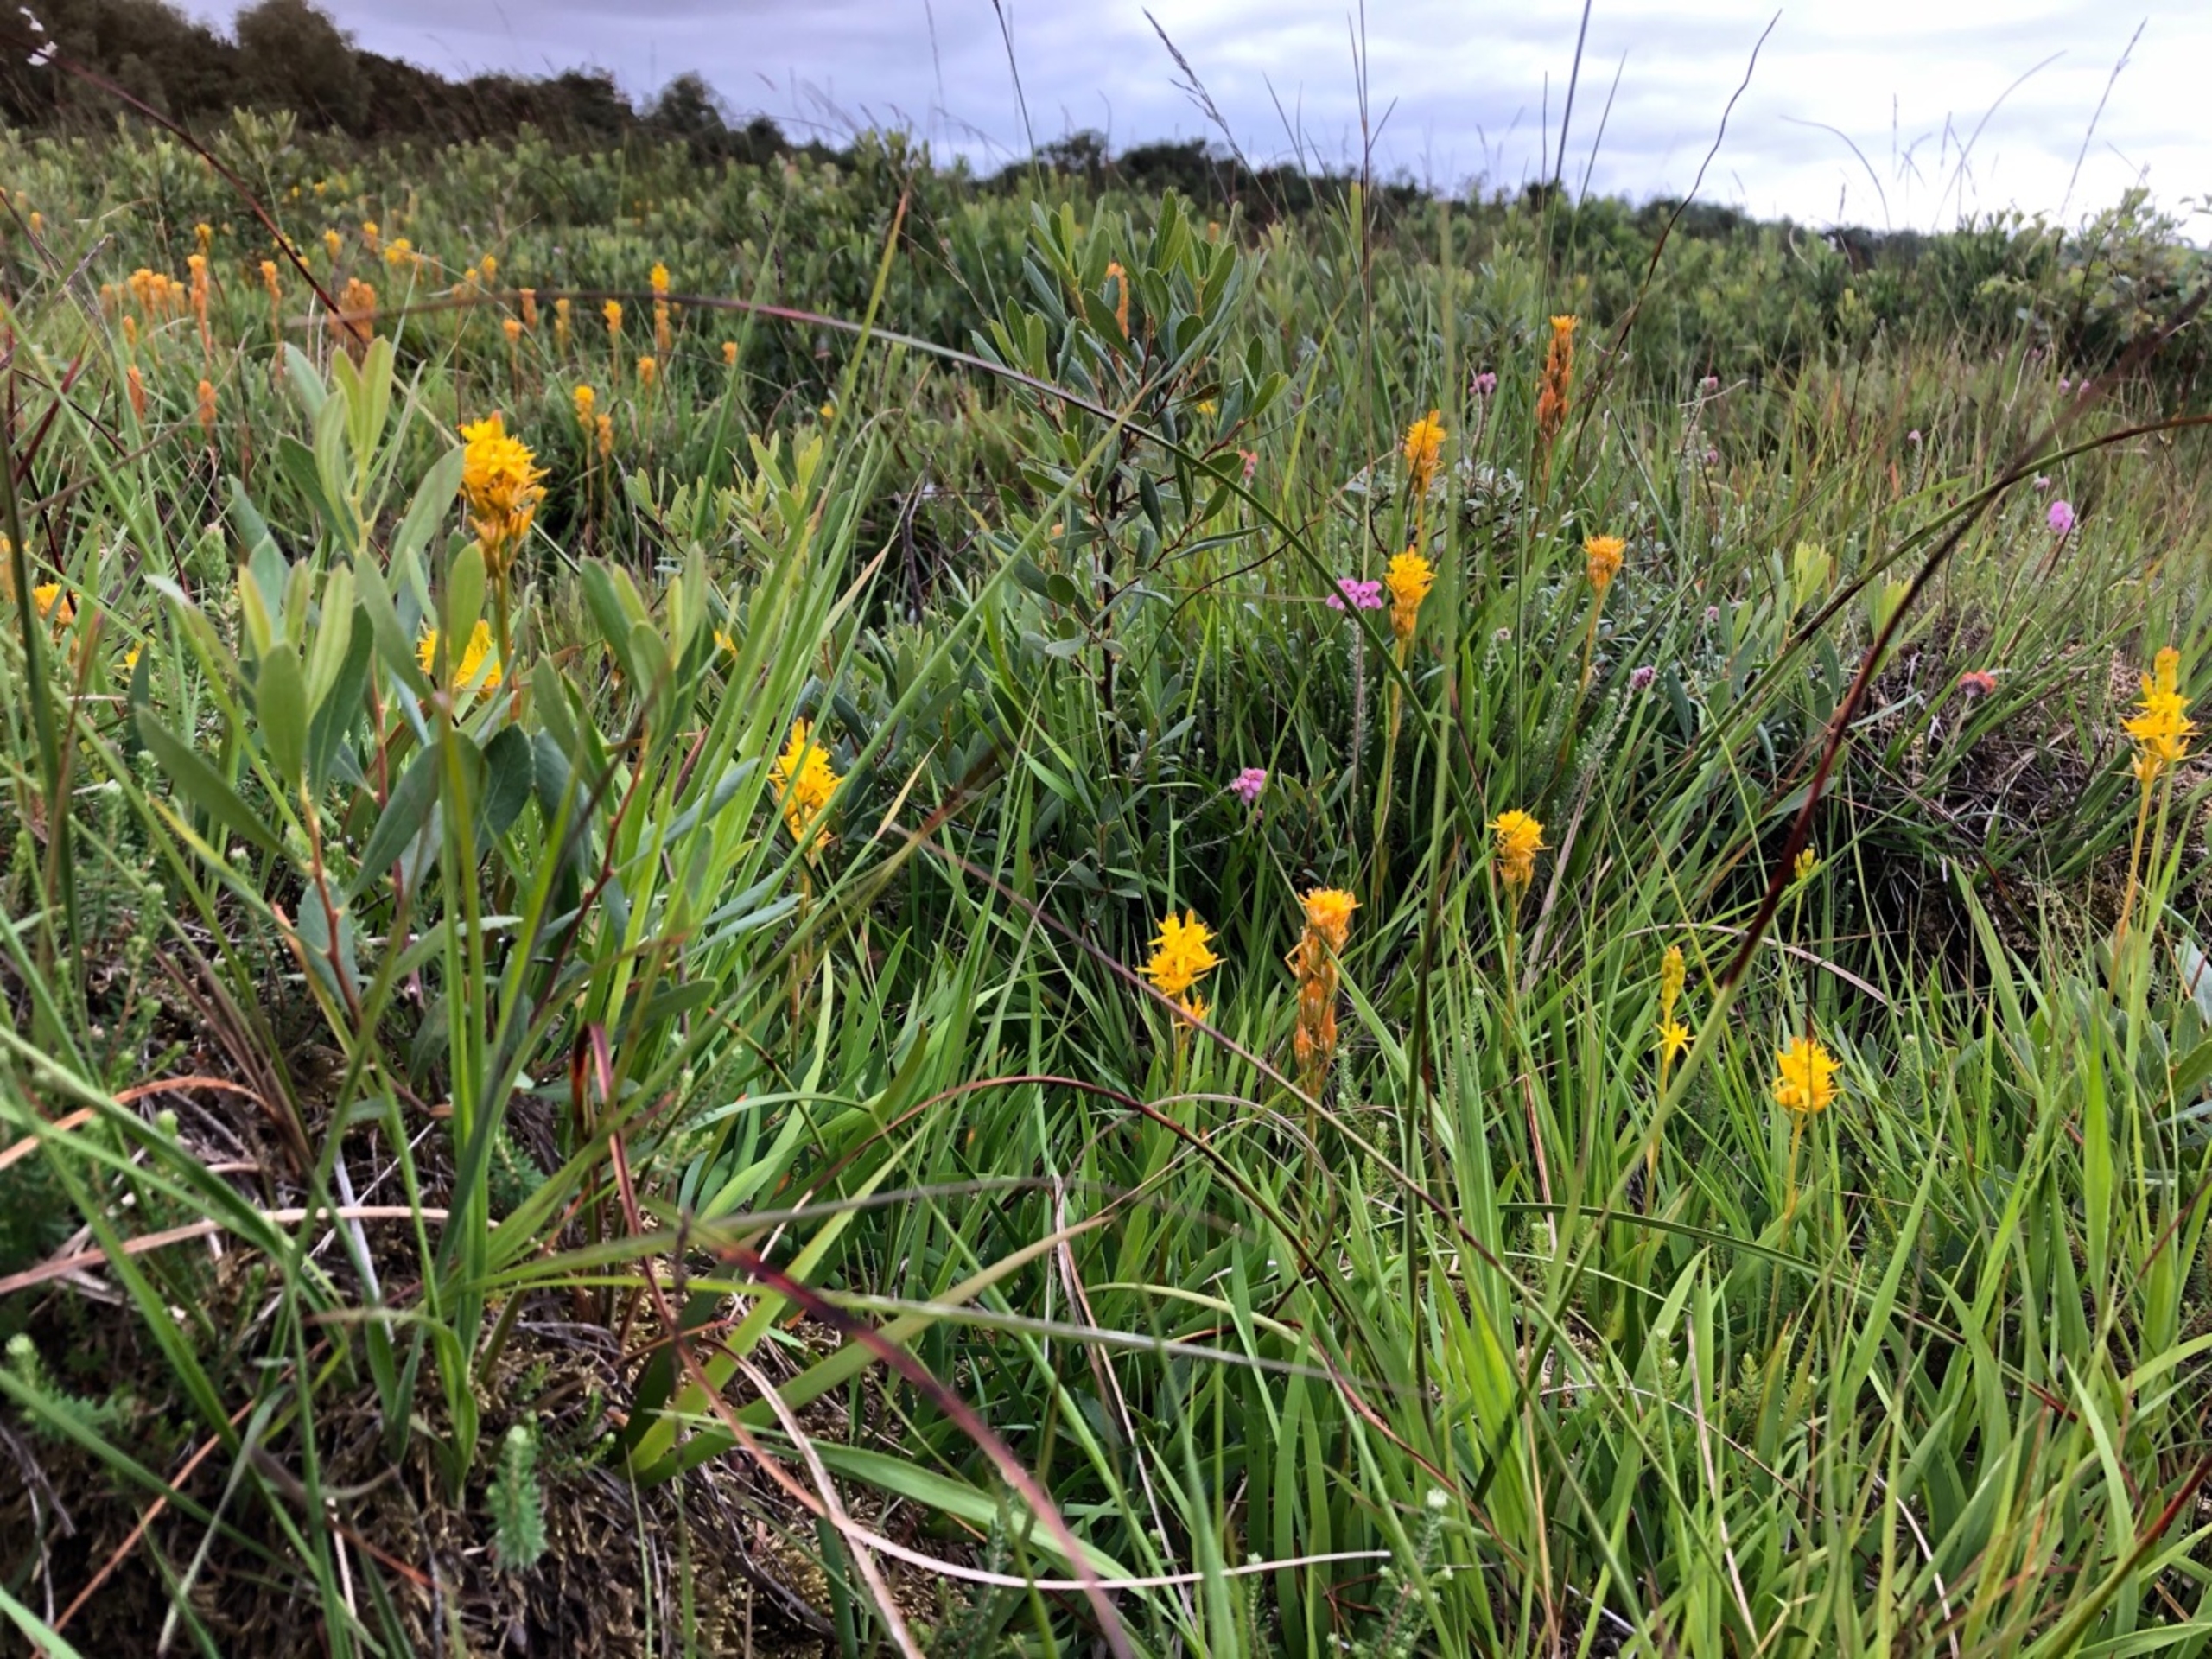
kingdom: Plantae
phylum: Tracheophyta
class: Liliopsida
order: Dioscoreales
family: Nartheciaceae
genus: Narthecium
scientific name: Narthecium ossifragum
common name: Benbræk
